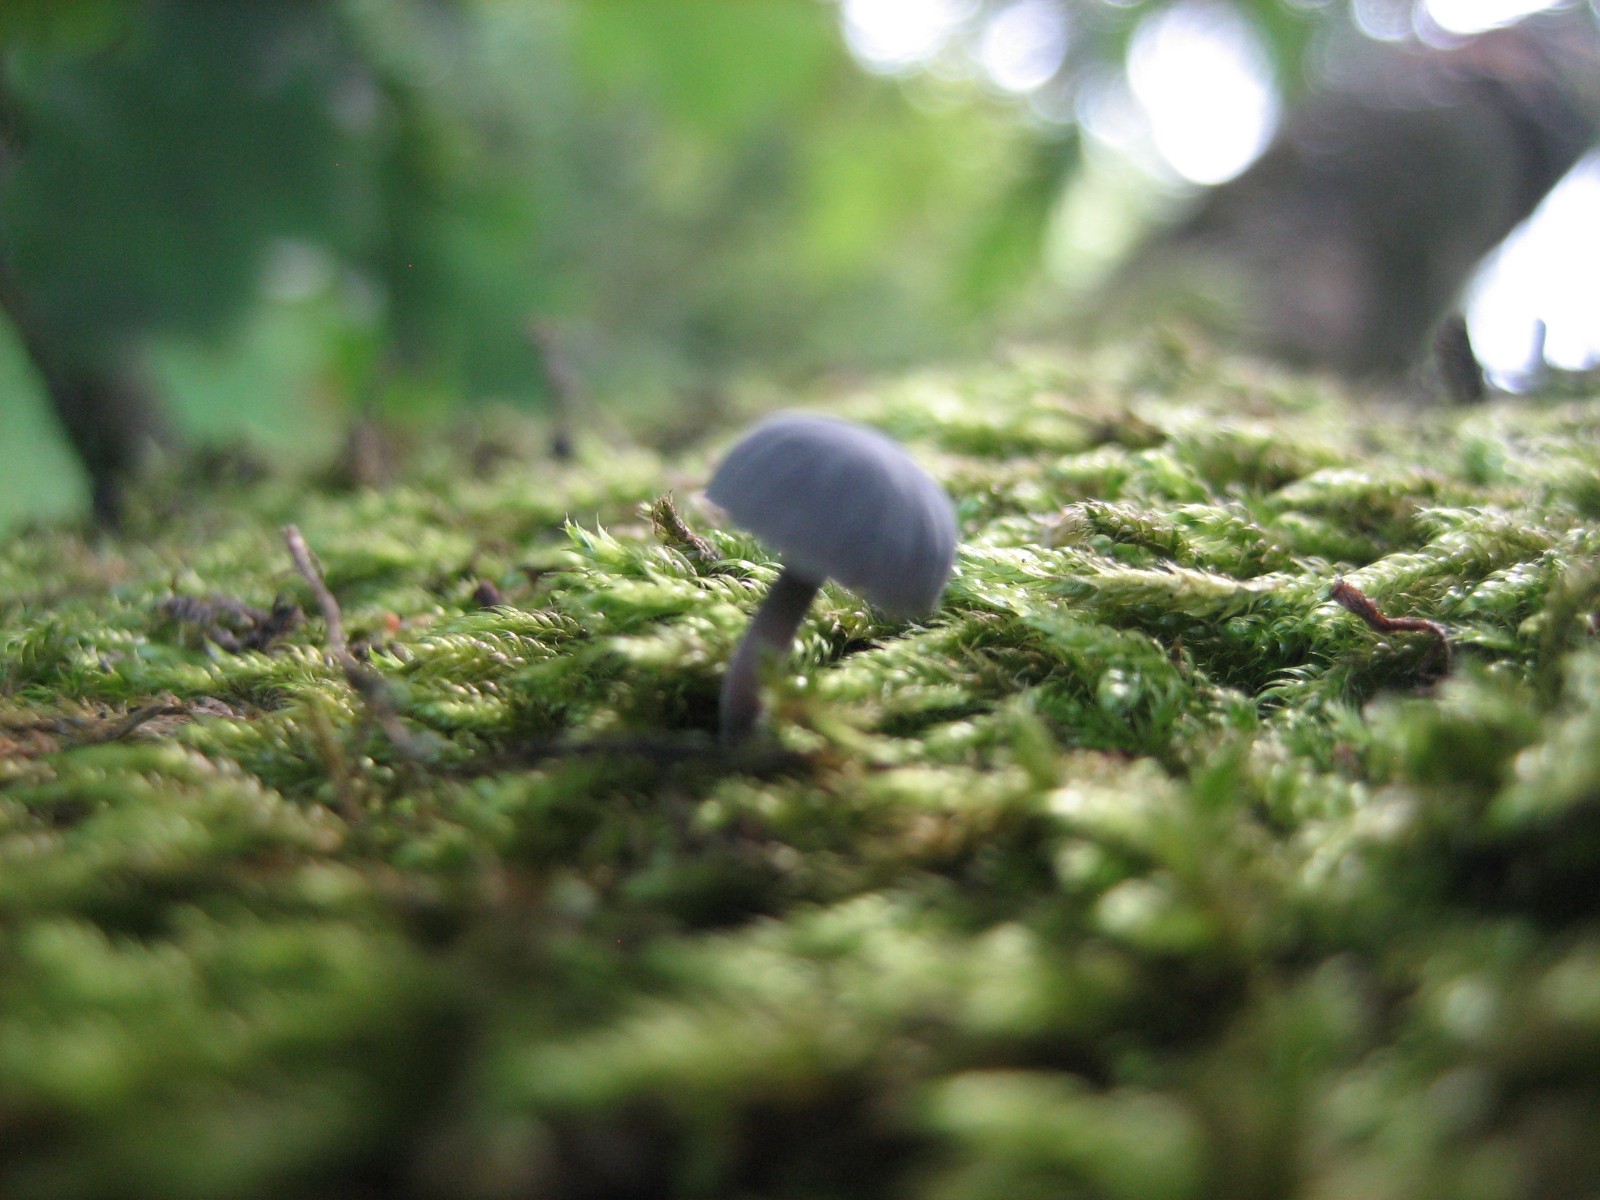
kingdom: Fungi
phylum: Basidiomycota
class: Agaricomycetes
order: Agaricales
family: Mycenaceae
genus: Mycena
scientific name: Mycena pseudocorticola
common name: gråblå bark-huesvamp
